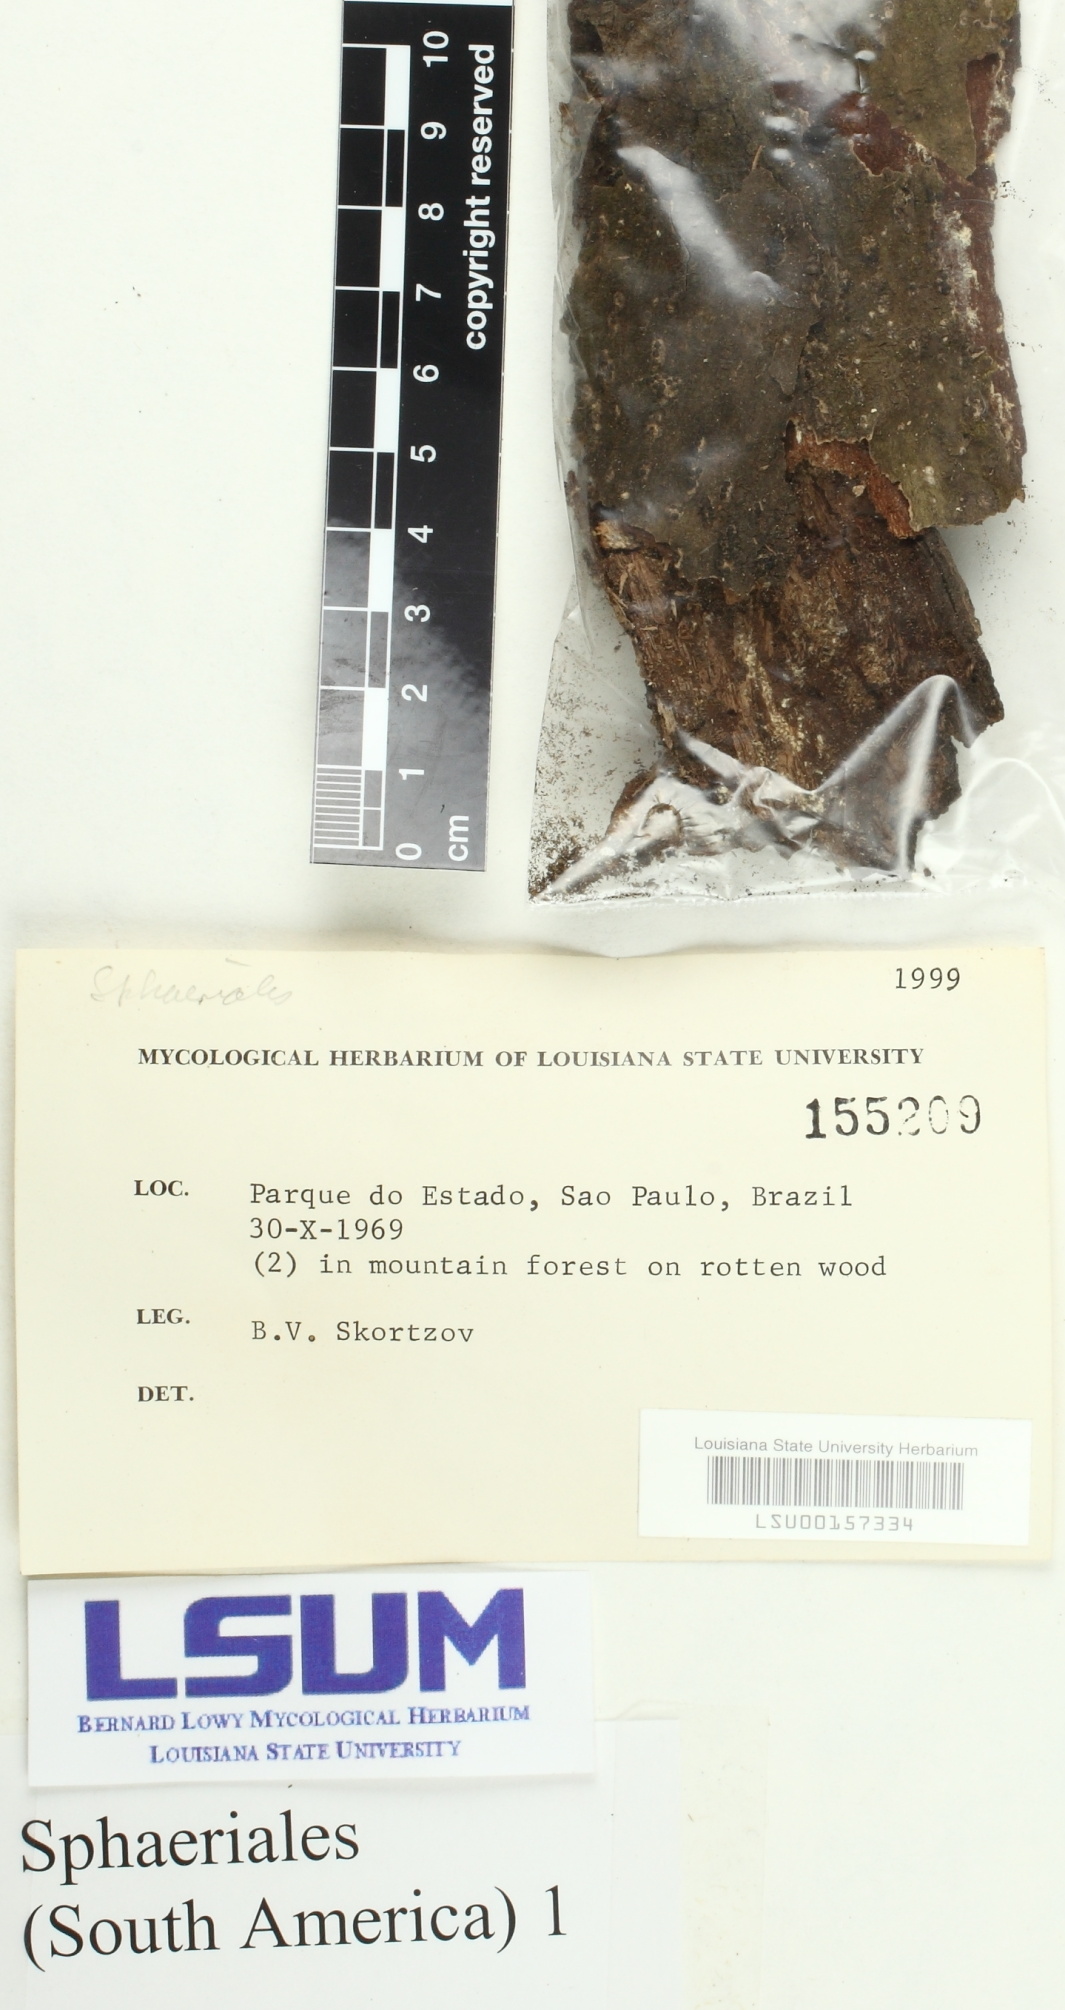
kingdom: Fungi
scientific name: Fungi
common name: Fungi
